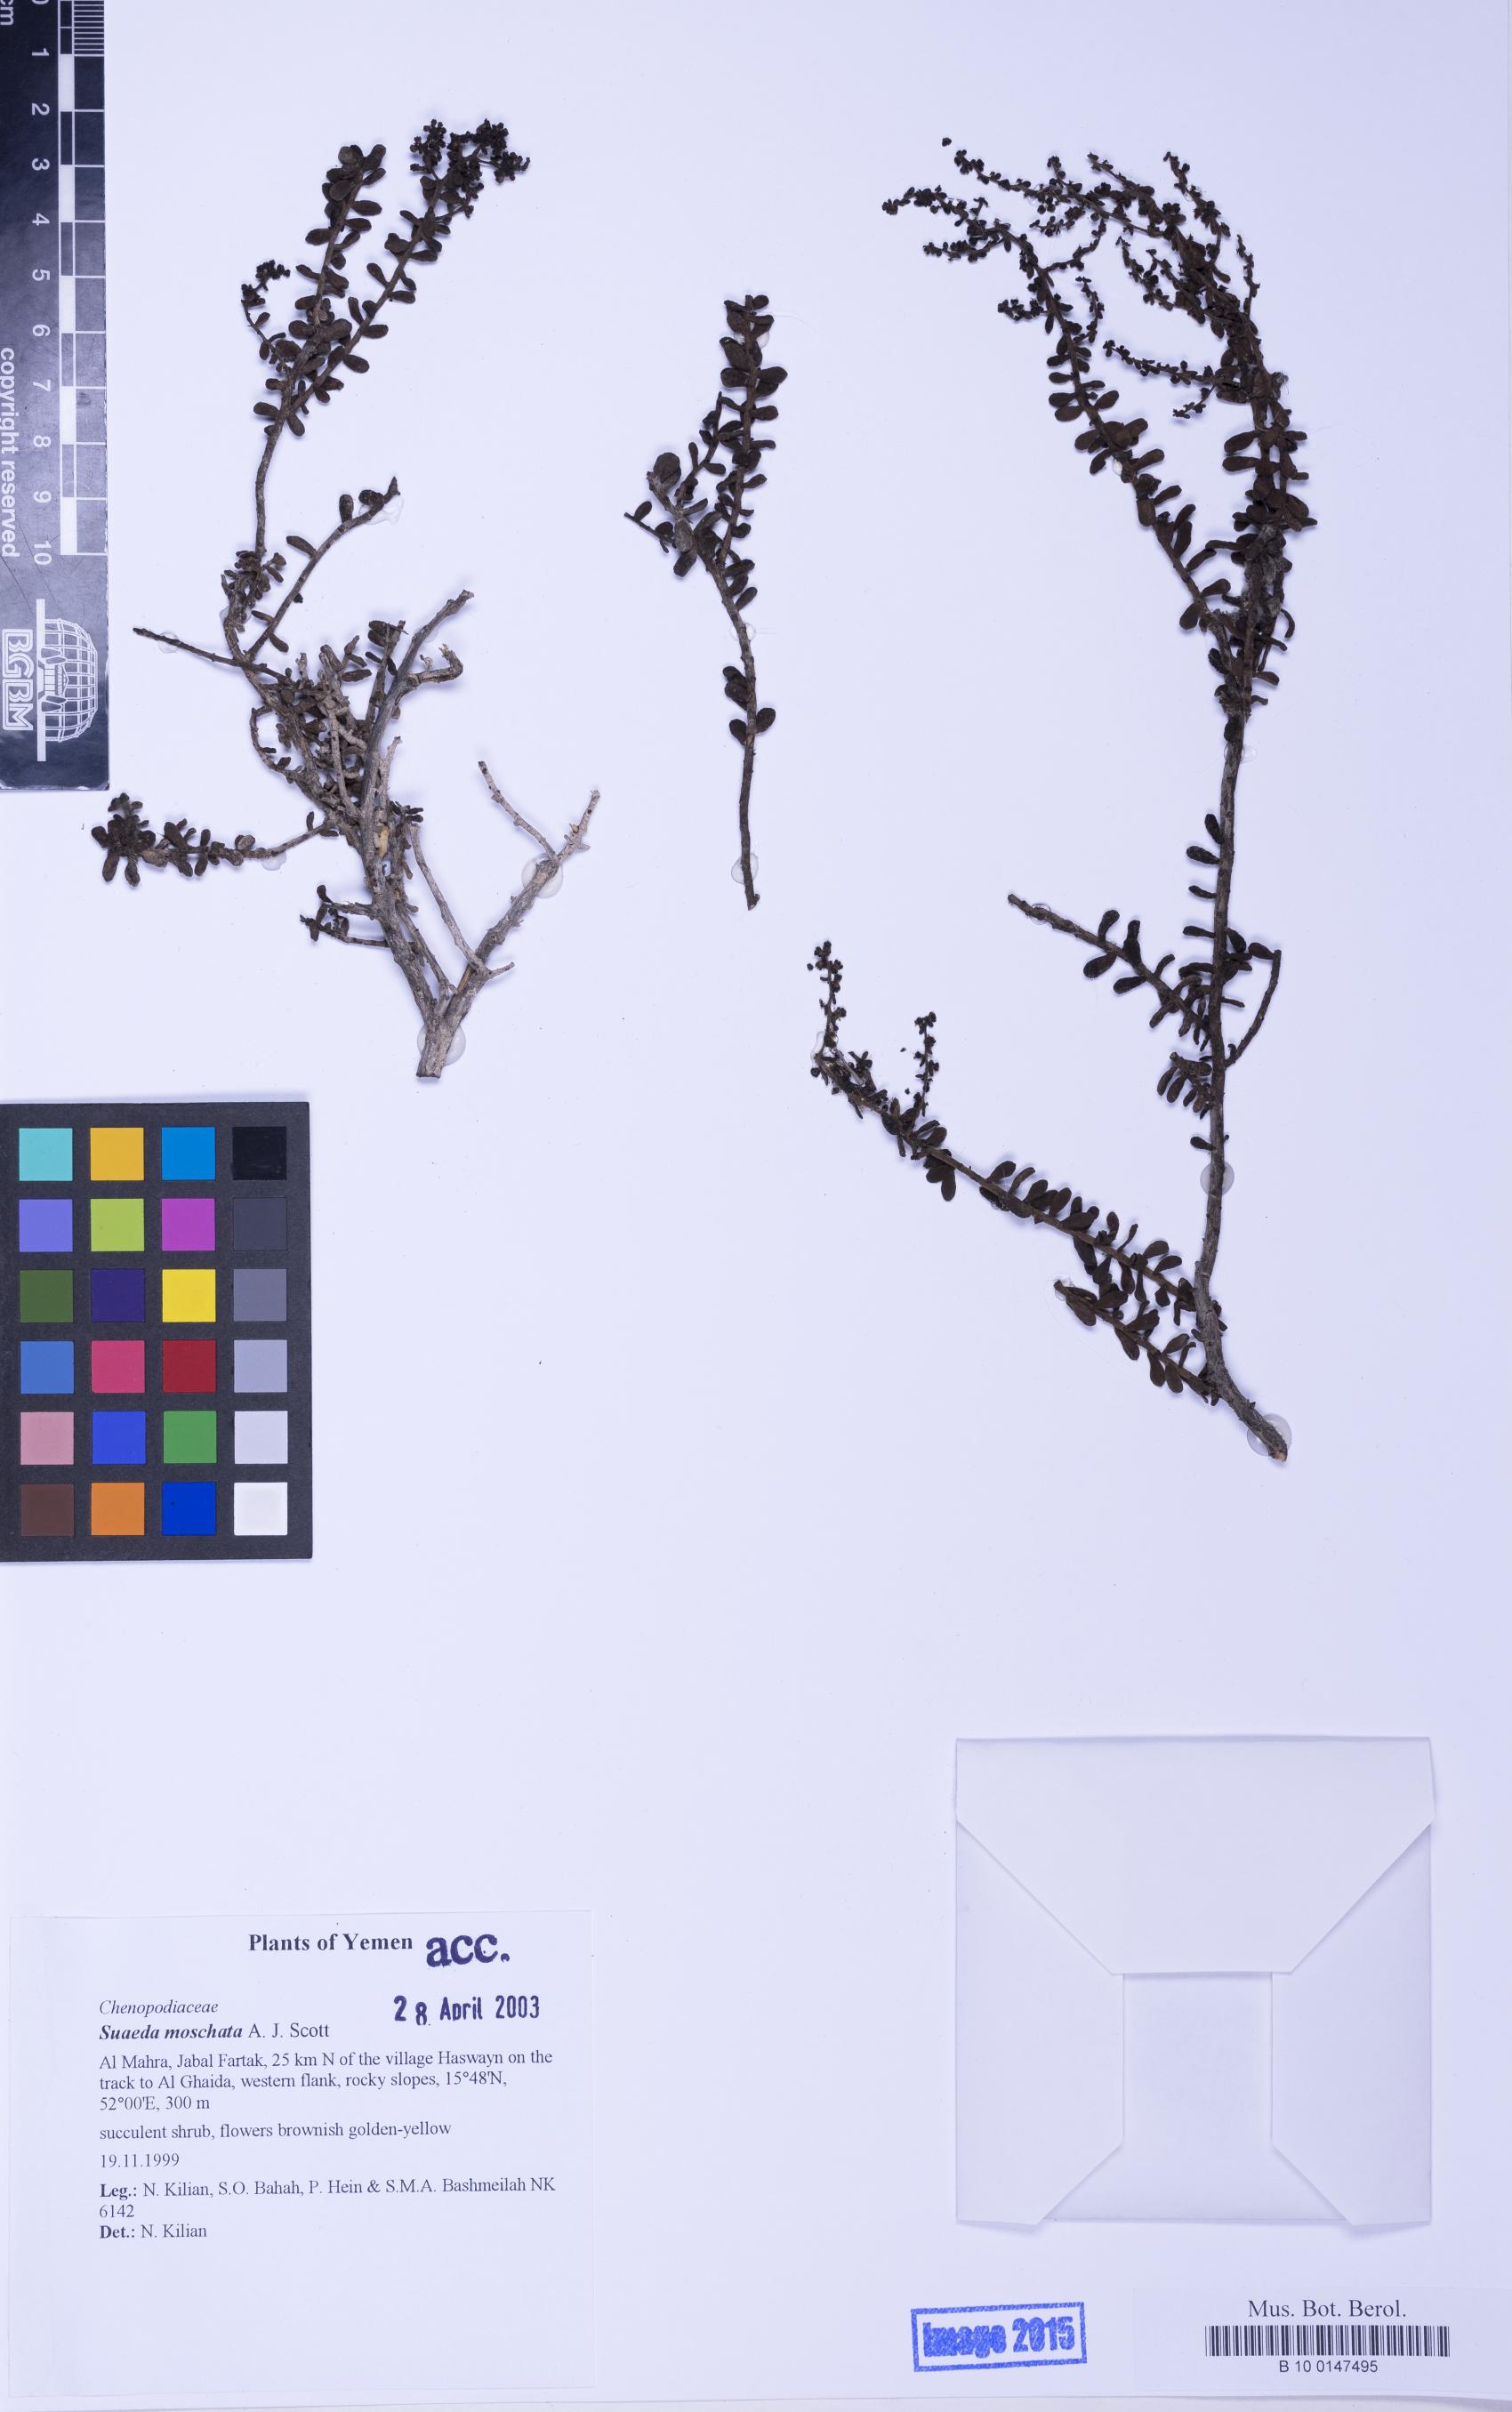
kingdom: Plantae
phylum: Tracheophyta
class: Magnoliopsida
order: Caryophyllales
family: Amaranthaceae
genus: Suaeda
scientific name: Suaeda moschata
